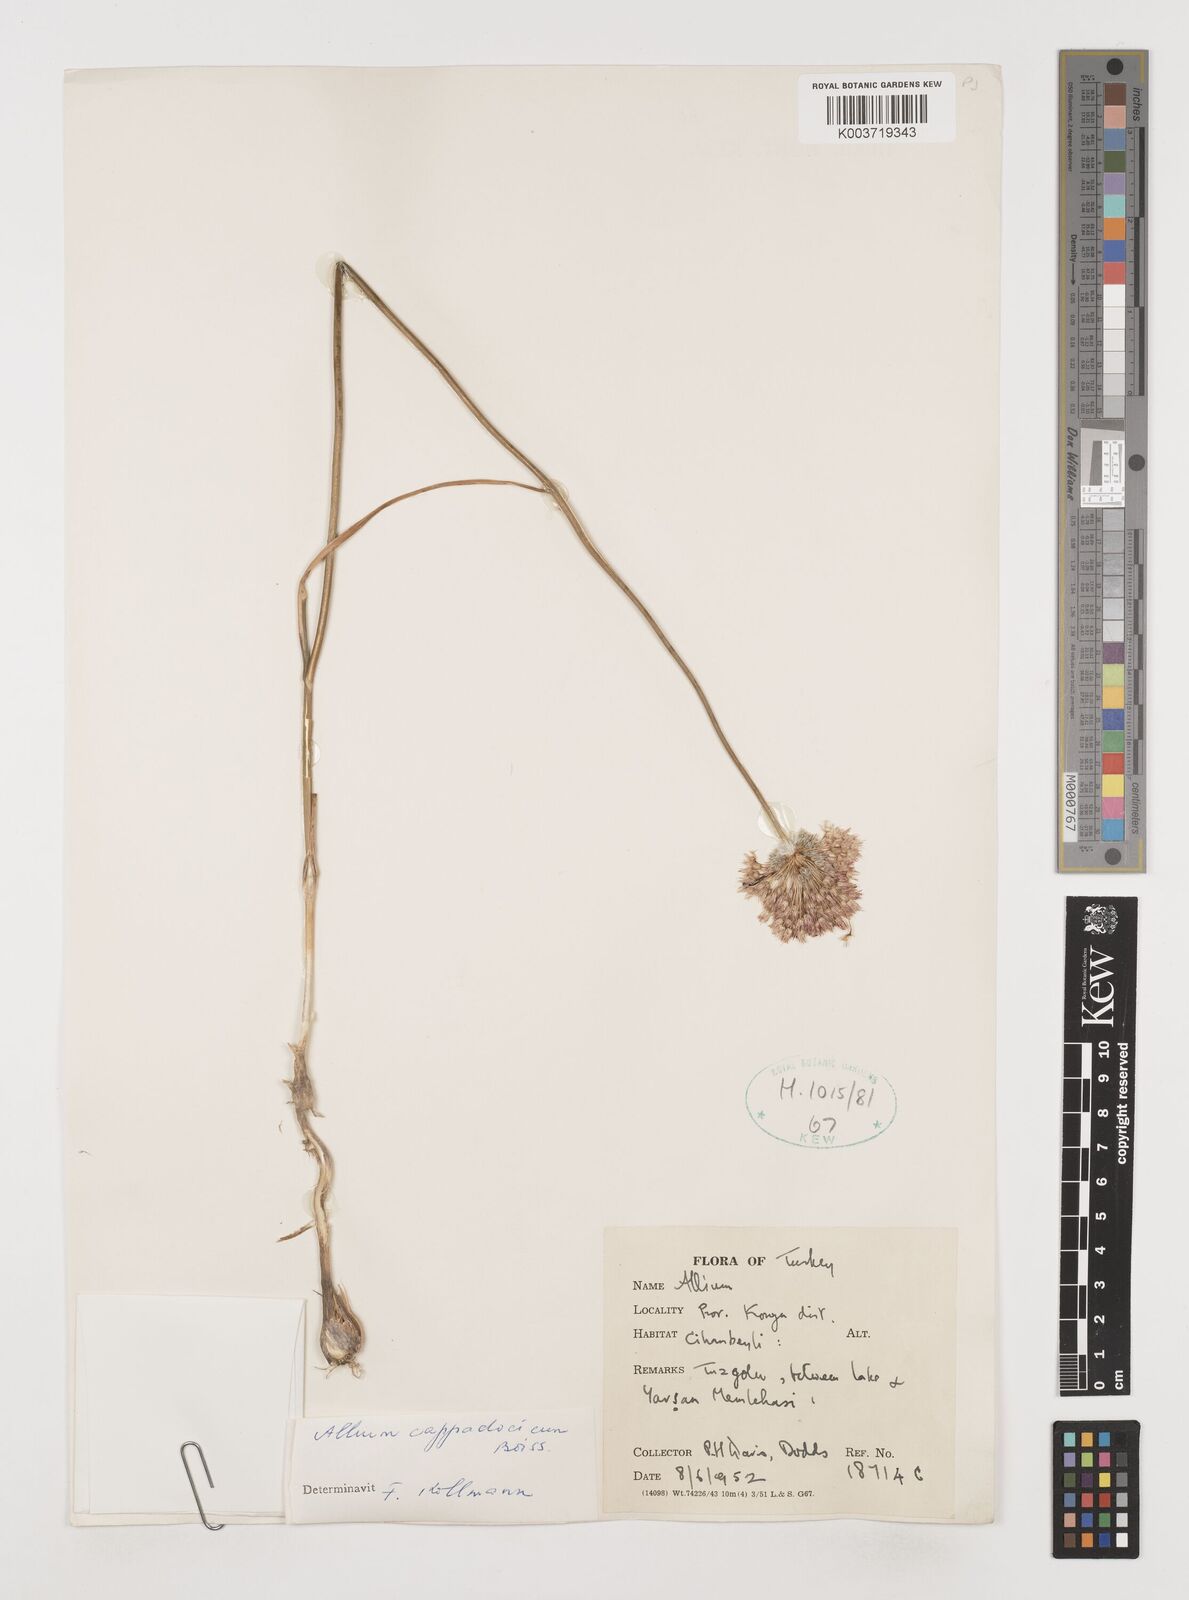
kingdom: Plantae
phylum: Tracheophyta
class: Liliopsida
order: Asparagales
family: Amaryllidaceae
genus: Allium
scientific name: Allium cappadocicum
